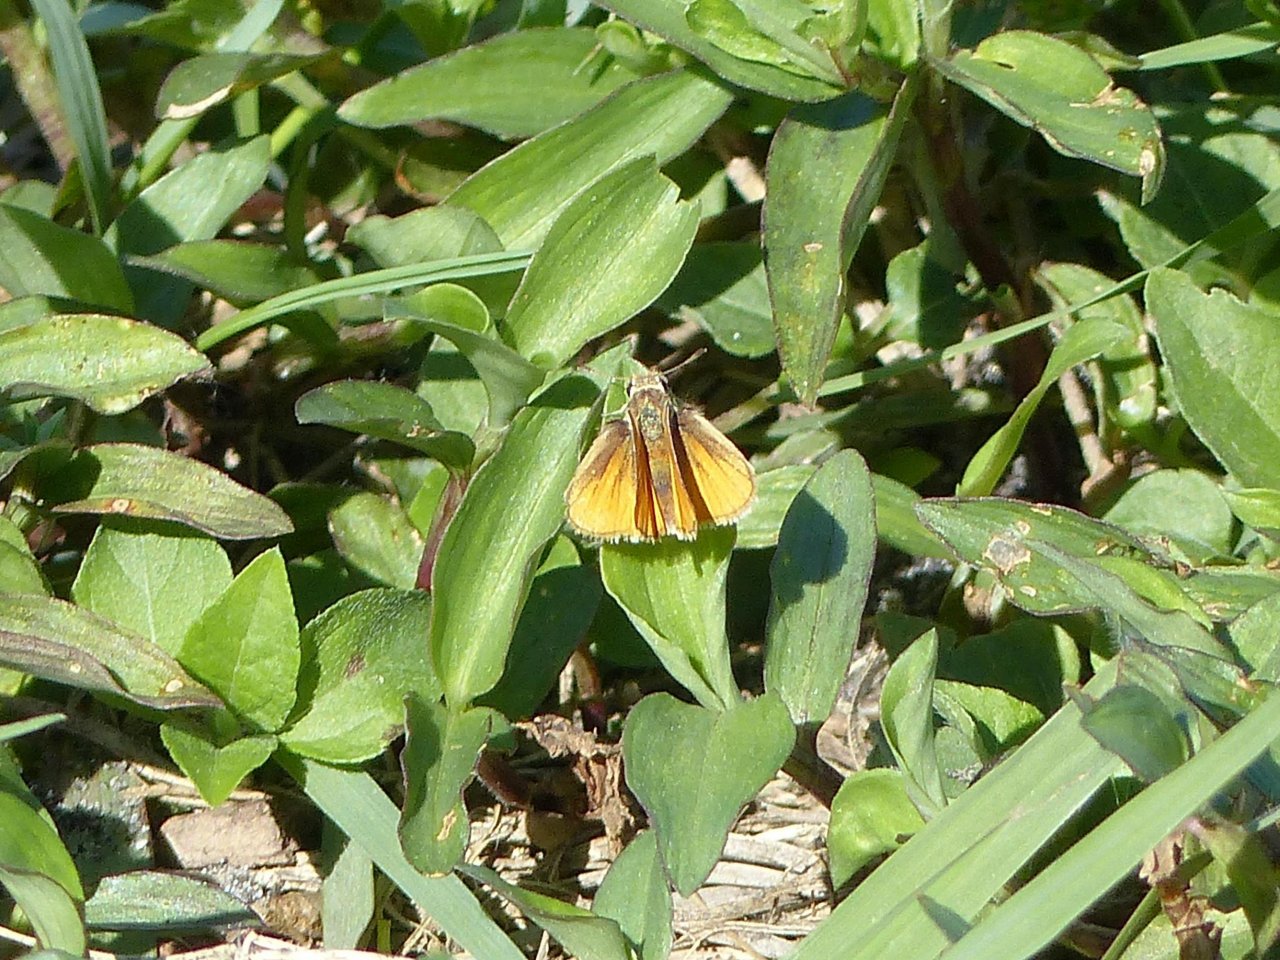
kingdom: Animalia
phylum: Arthropoda
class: Insecta
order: Lepidoptera
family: Hesperiidae
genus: Copaeodes
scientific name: Copaeodes minima
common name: Southern Skipperling
